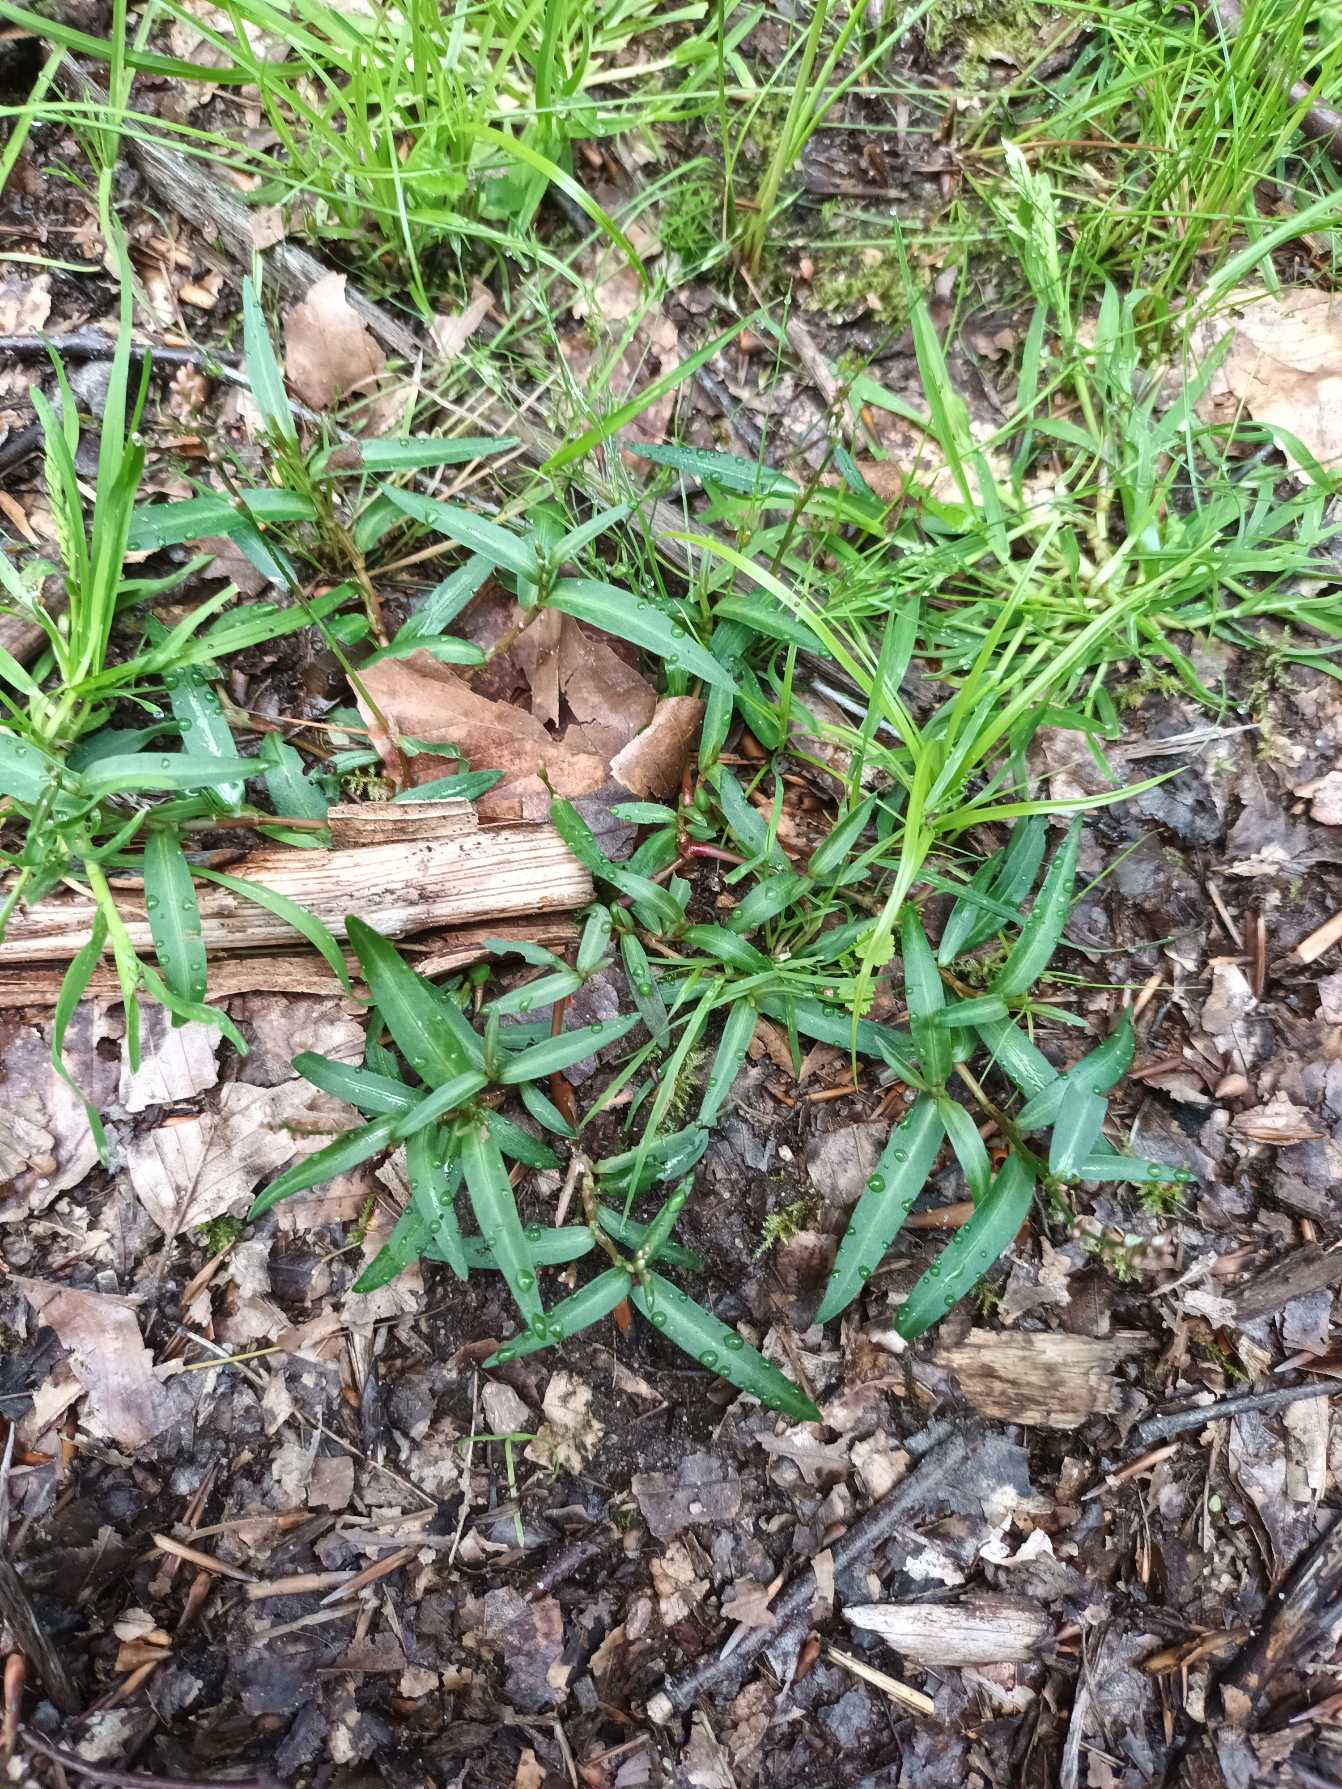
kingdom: Plantae
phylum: Tracheophyta
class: Magnoliopsida
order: Caryophyllales
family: Polygonaceae
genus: Persicaria
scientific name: Persicaria minor
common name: Liden pileurt
